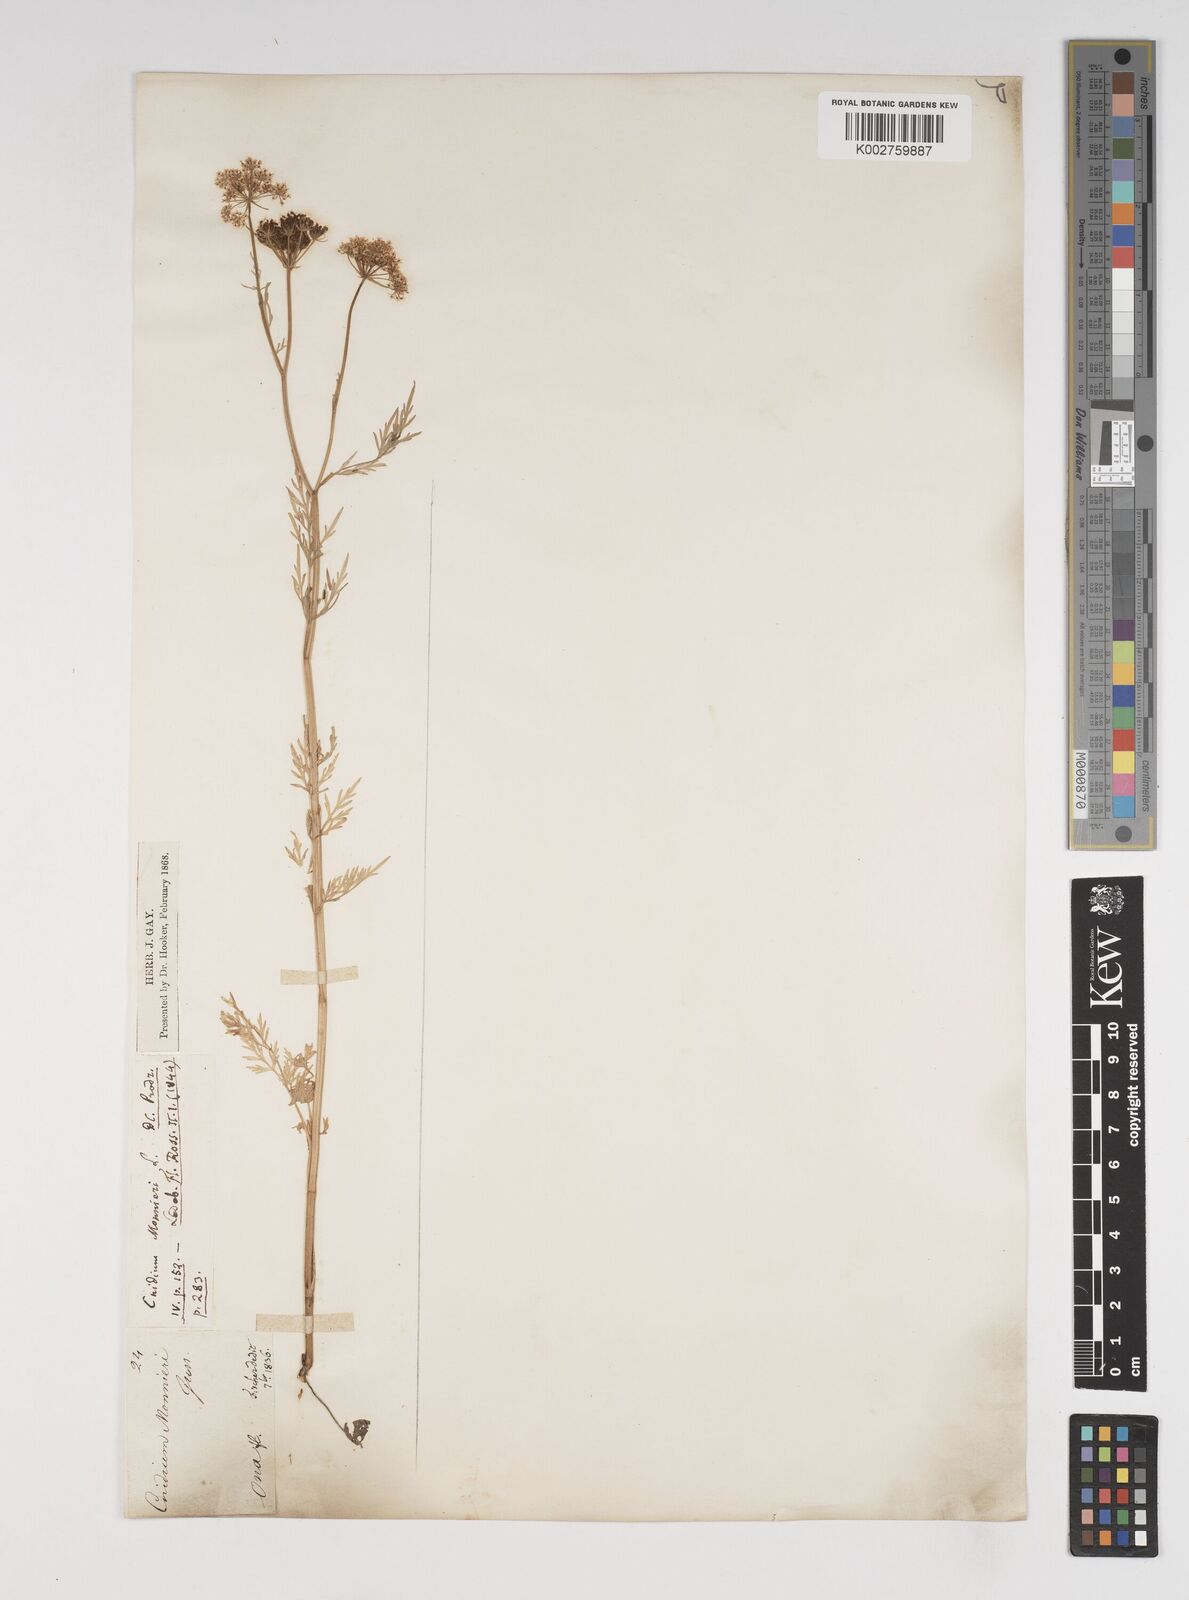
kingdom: Plantae
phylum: Tracheophyta
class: Magnoliopsida
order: Apiales
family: Apiaceae
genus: Cnidium
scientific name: Cnidium monnieri
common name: Monnier's snowparsley
